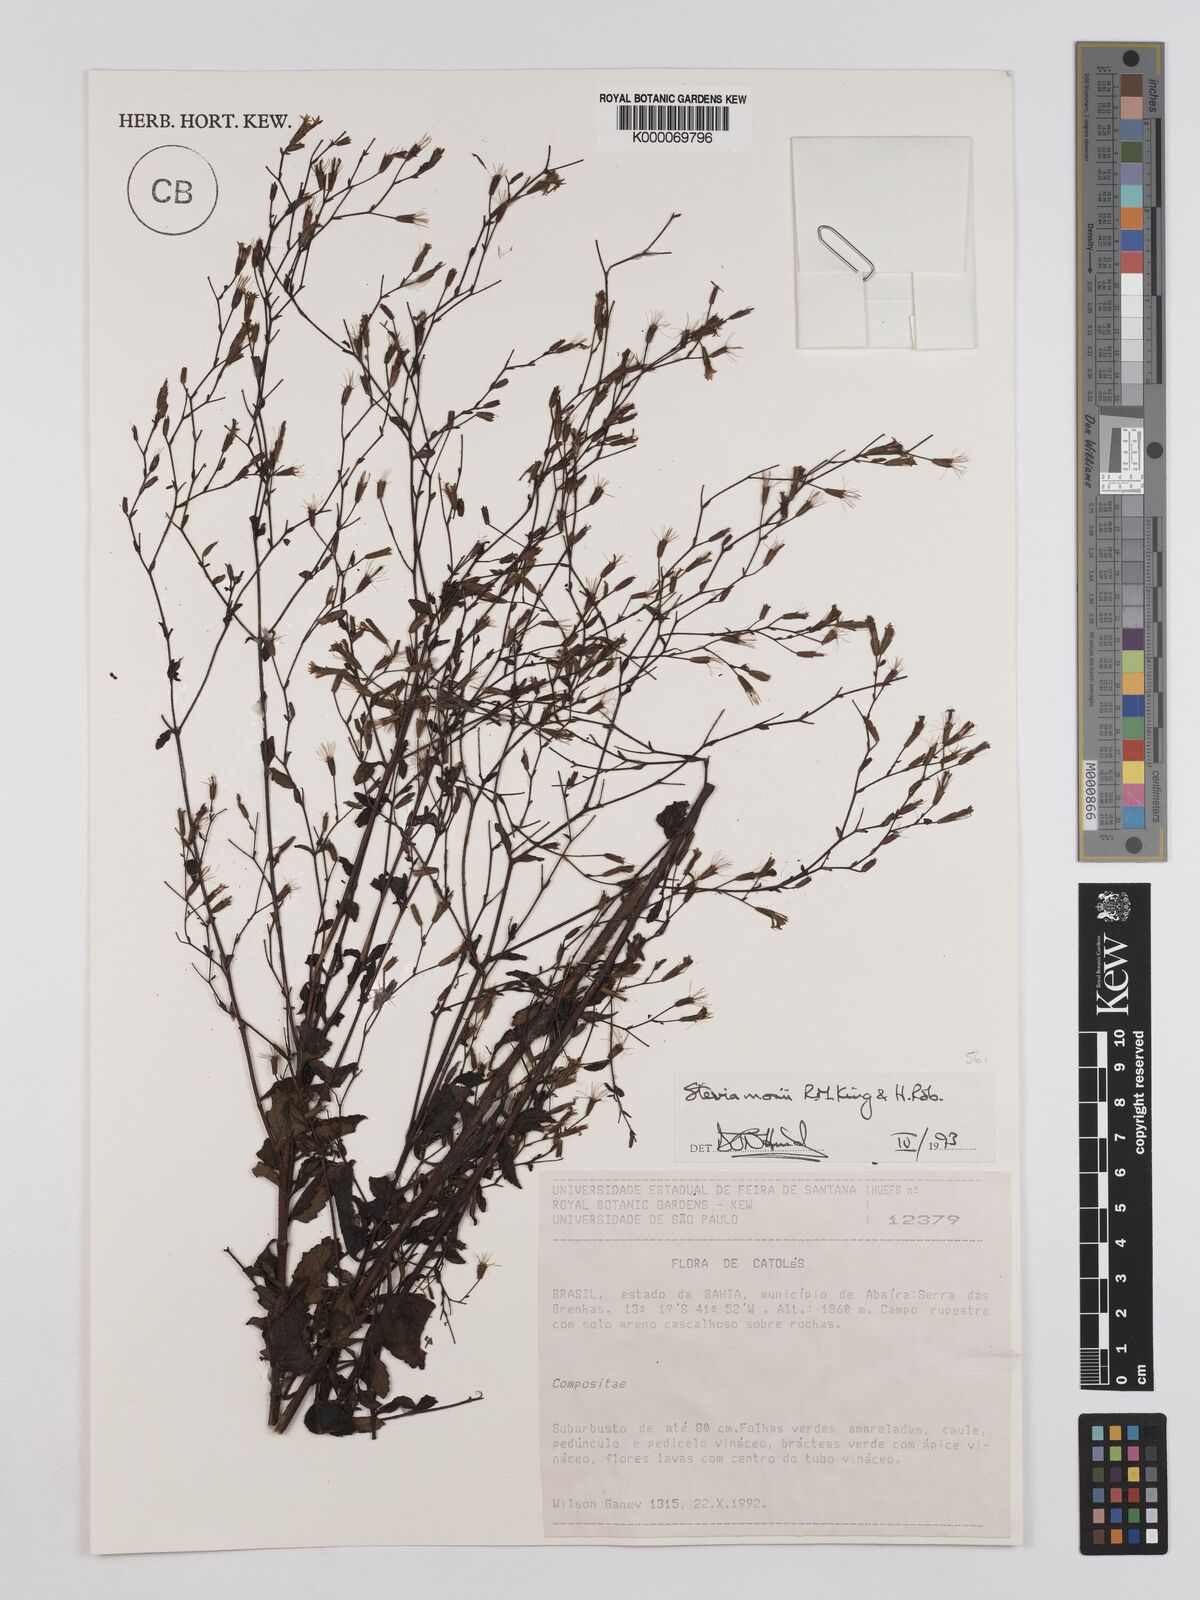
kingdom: Plantae
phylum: Tracheophyta
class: Magnoliopsida
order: Asterales
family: Asteraceae
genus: Stevia
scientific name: Stevia morii
